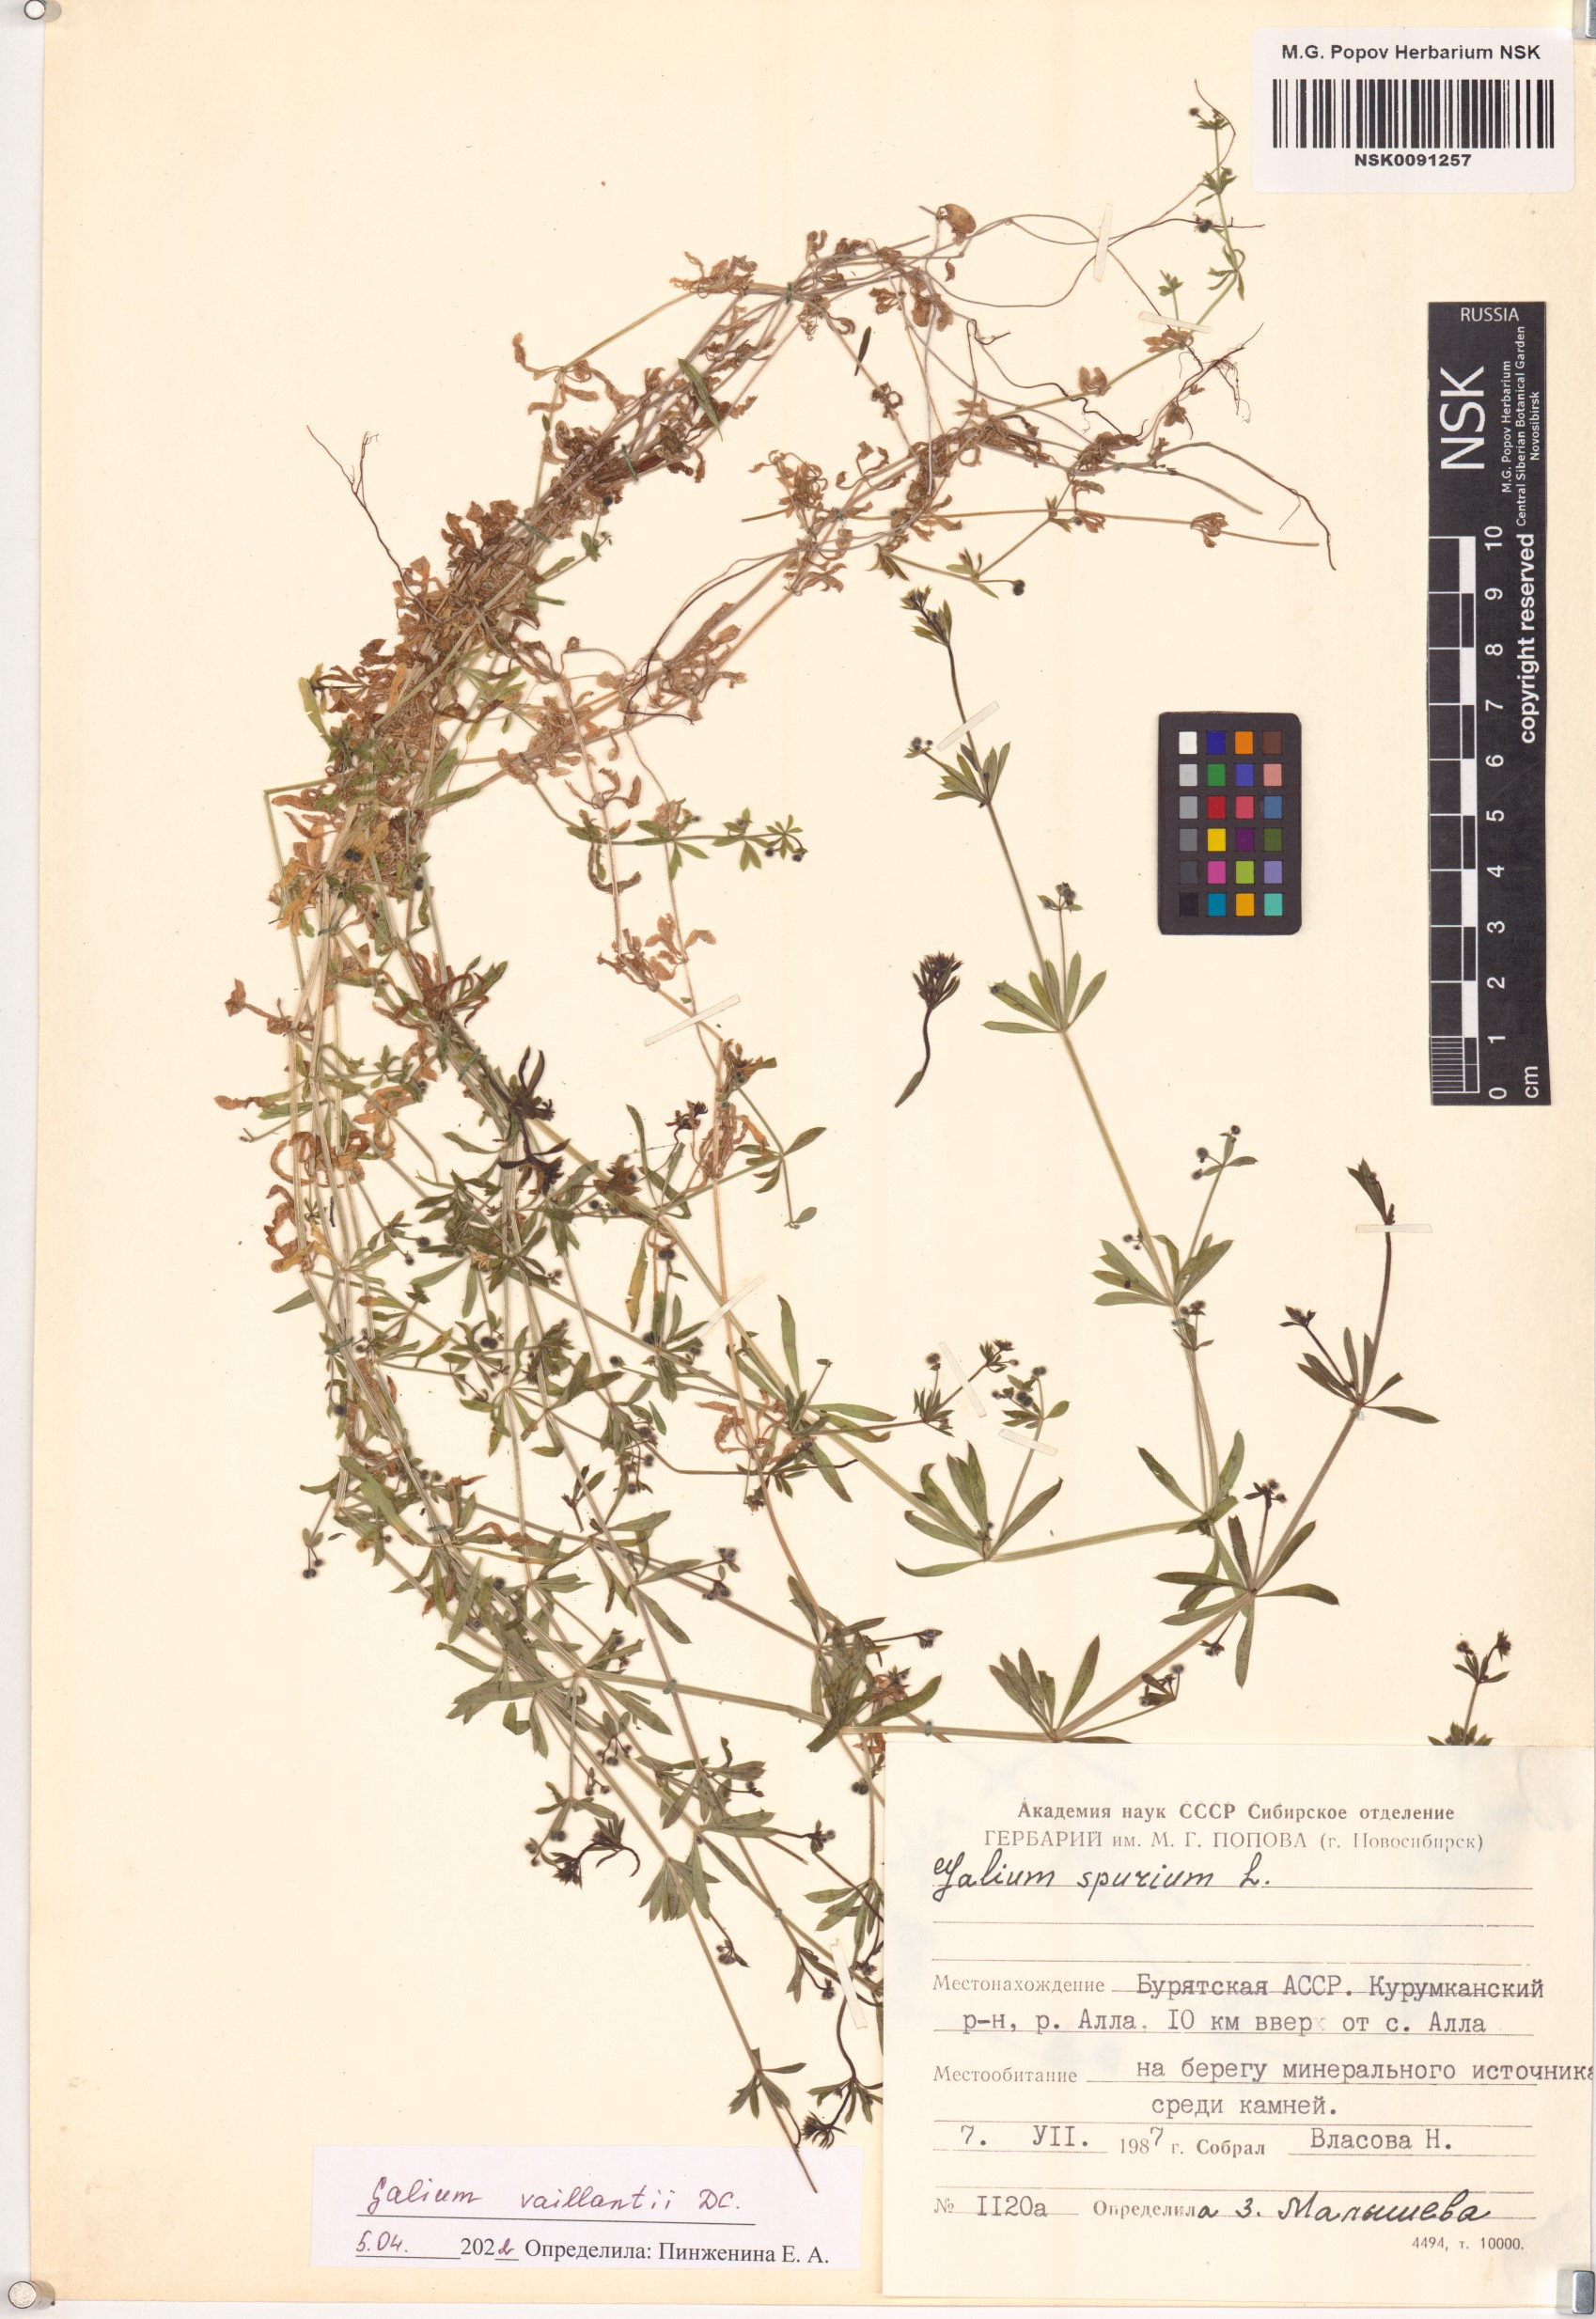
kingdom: Plantae
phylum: Tracheophyta
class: Magnoliopsida
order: Gentianales
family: Rubiaceae
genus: Galium
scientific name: Galium spurium
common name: False cleavers
